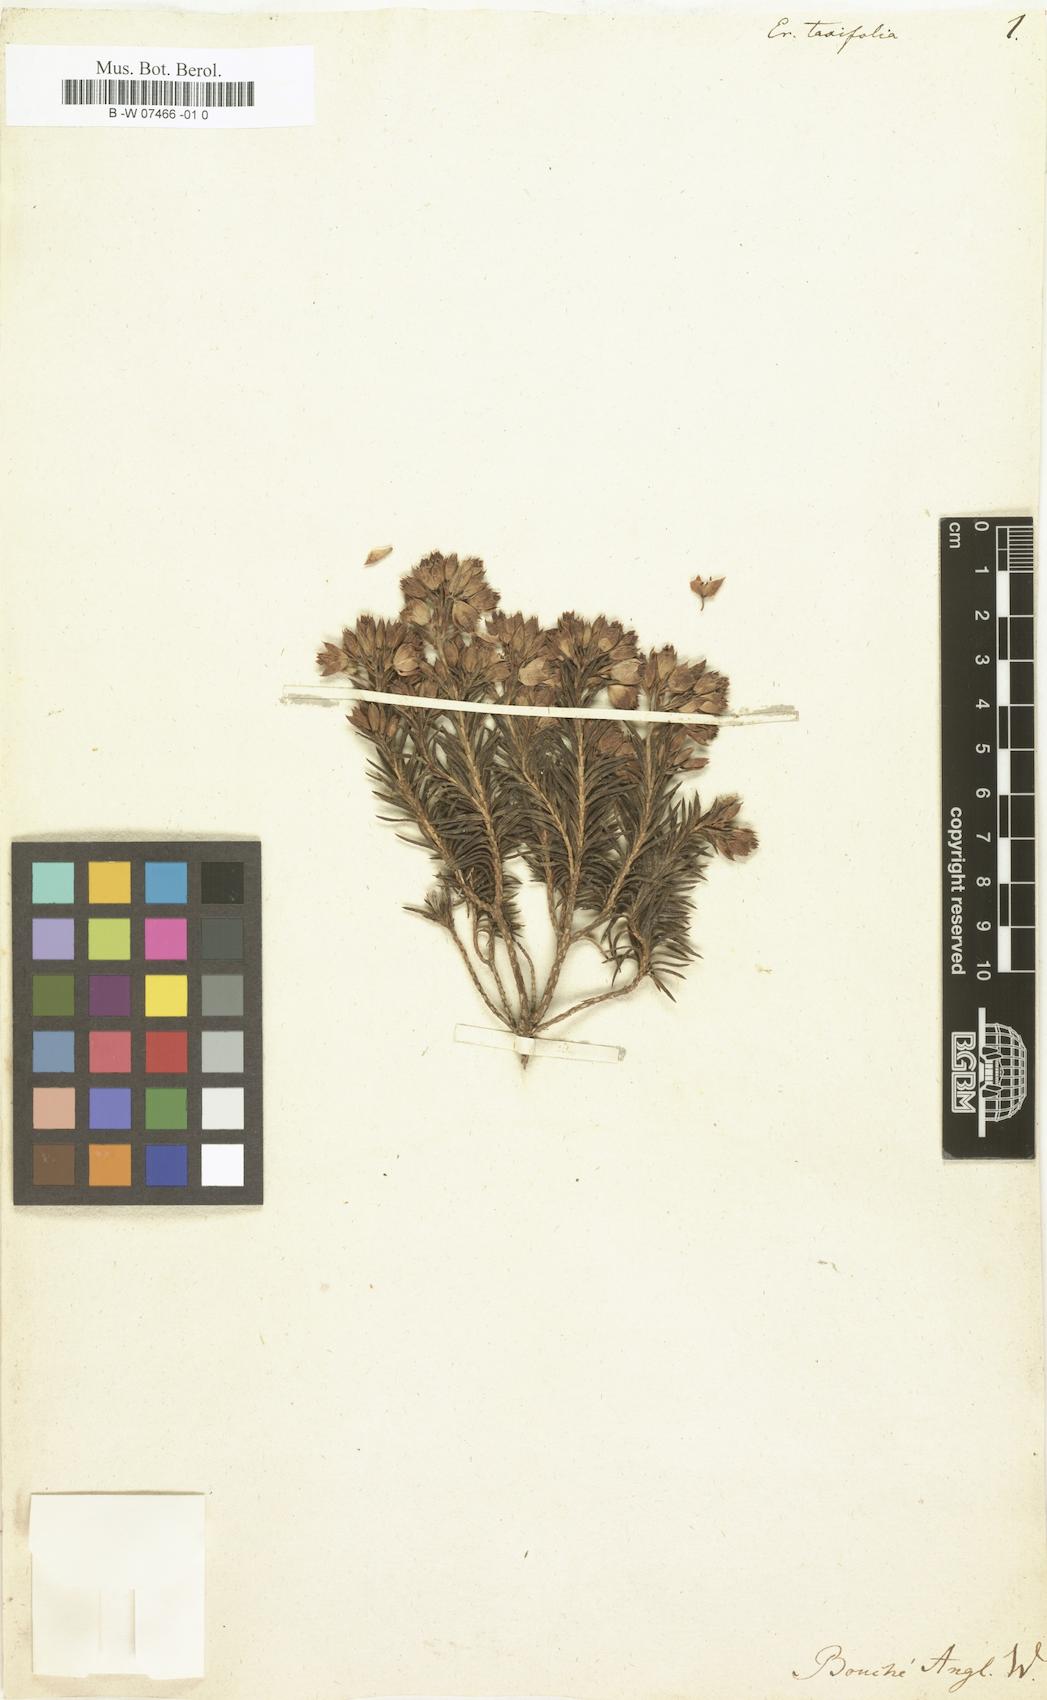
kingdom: Plantae
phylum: Tracheophyta
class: Magnoliopsida
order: Ericales
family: Ericaceae
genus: Erica
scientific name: Erica taxifolia
